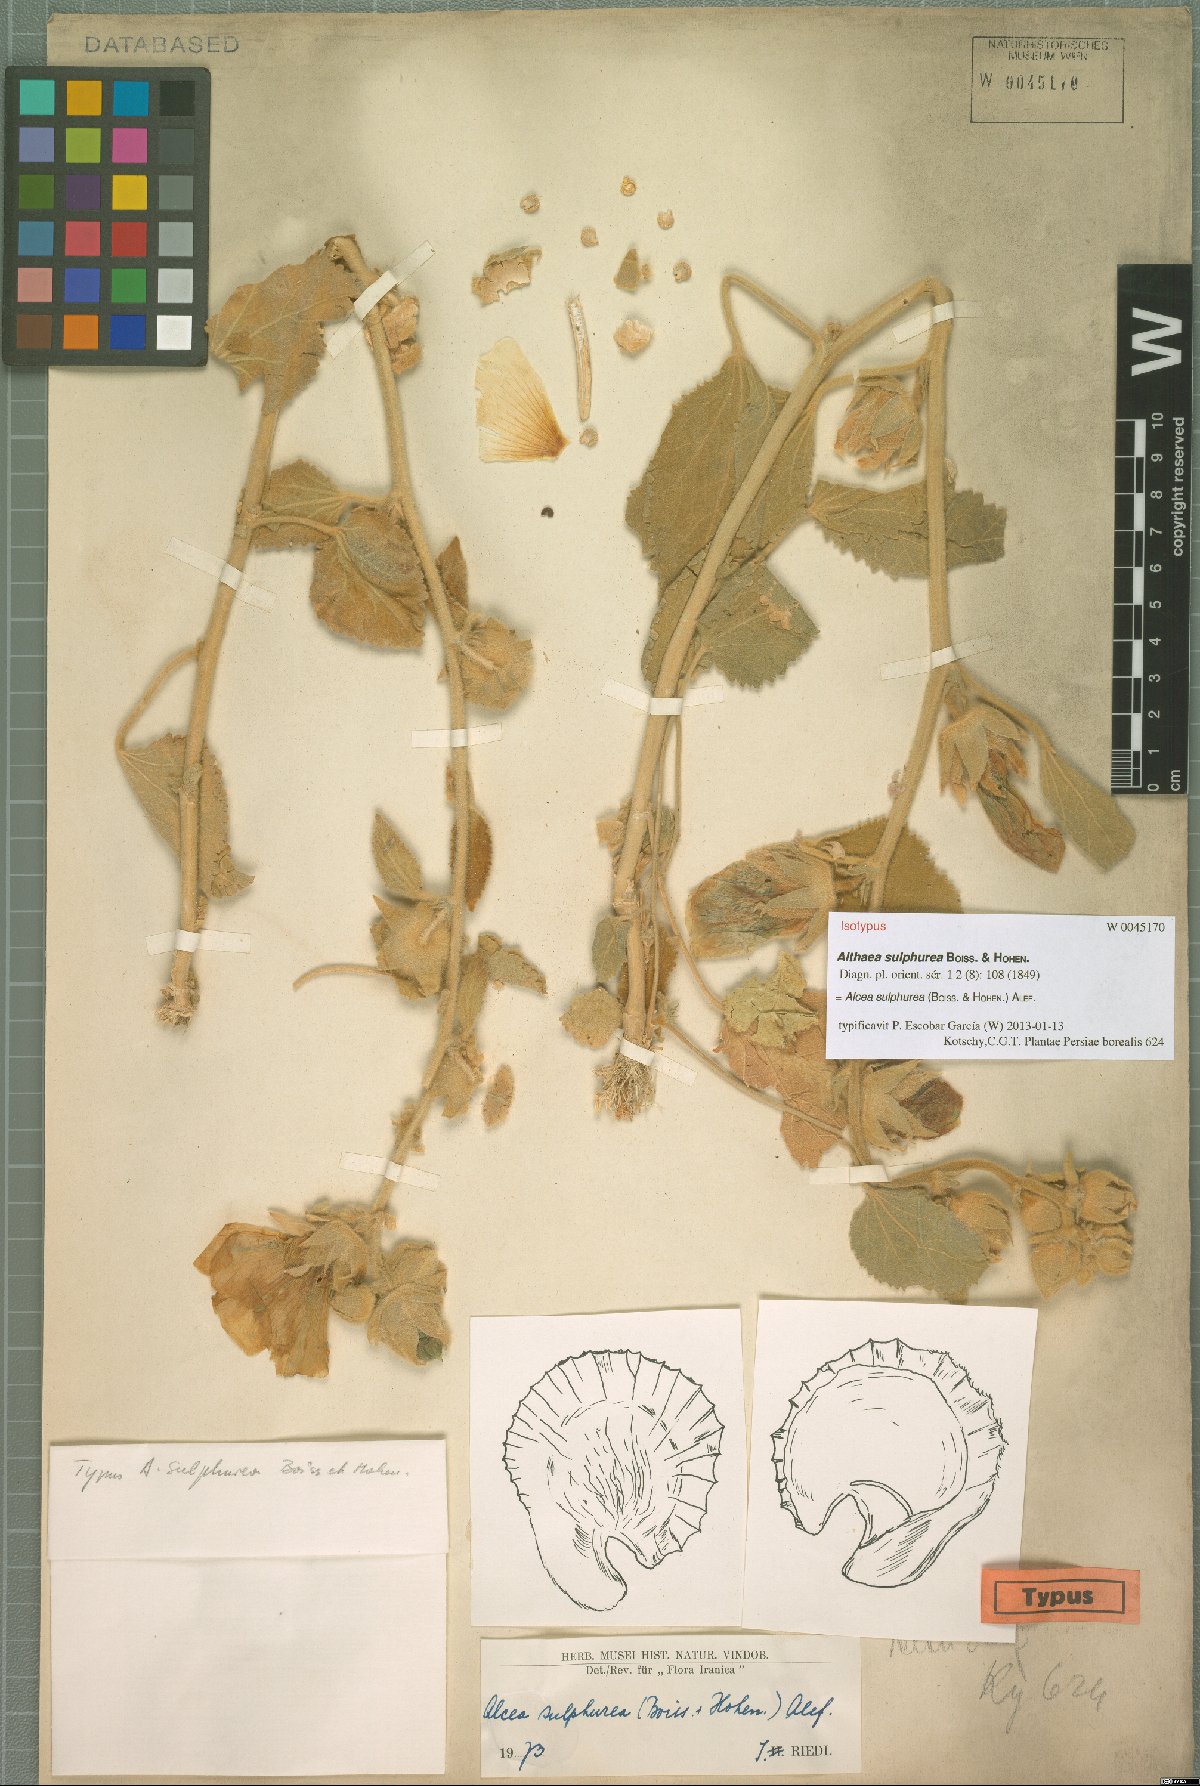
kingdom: Plantae
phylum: Tracheophyta
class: Magnoliopsida
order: Malvales
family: Malvaceae
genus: Alcea
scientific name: Alcea sulphurea
